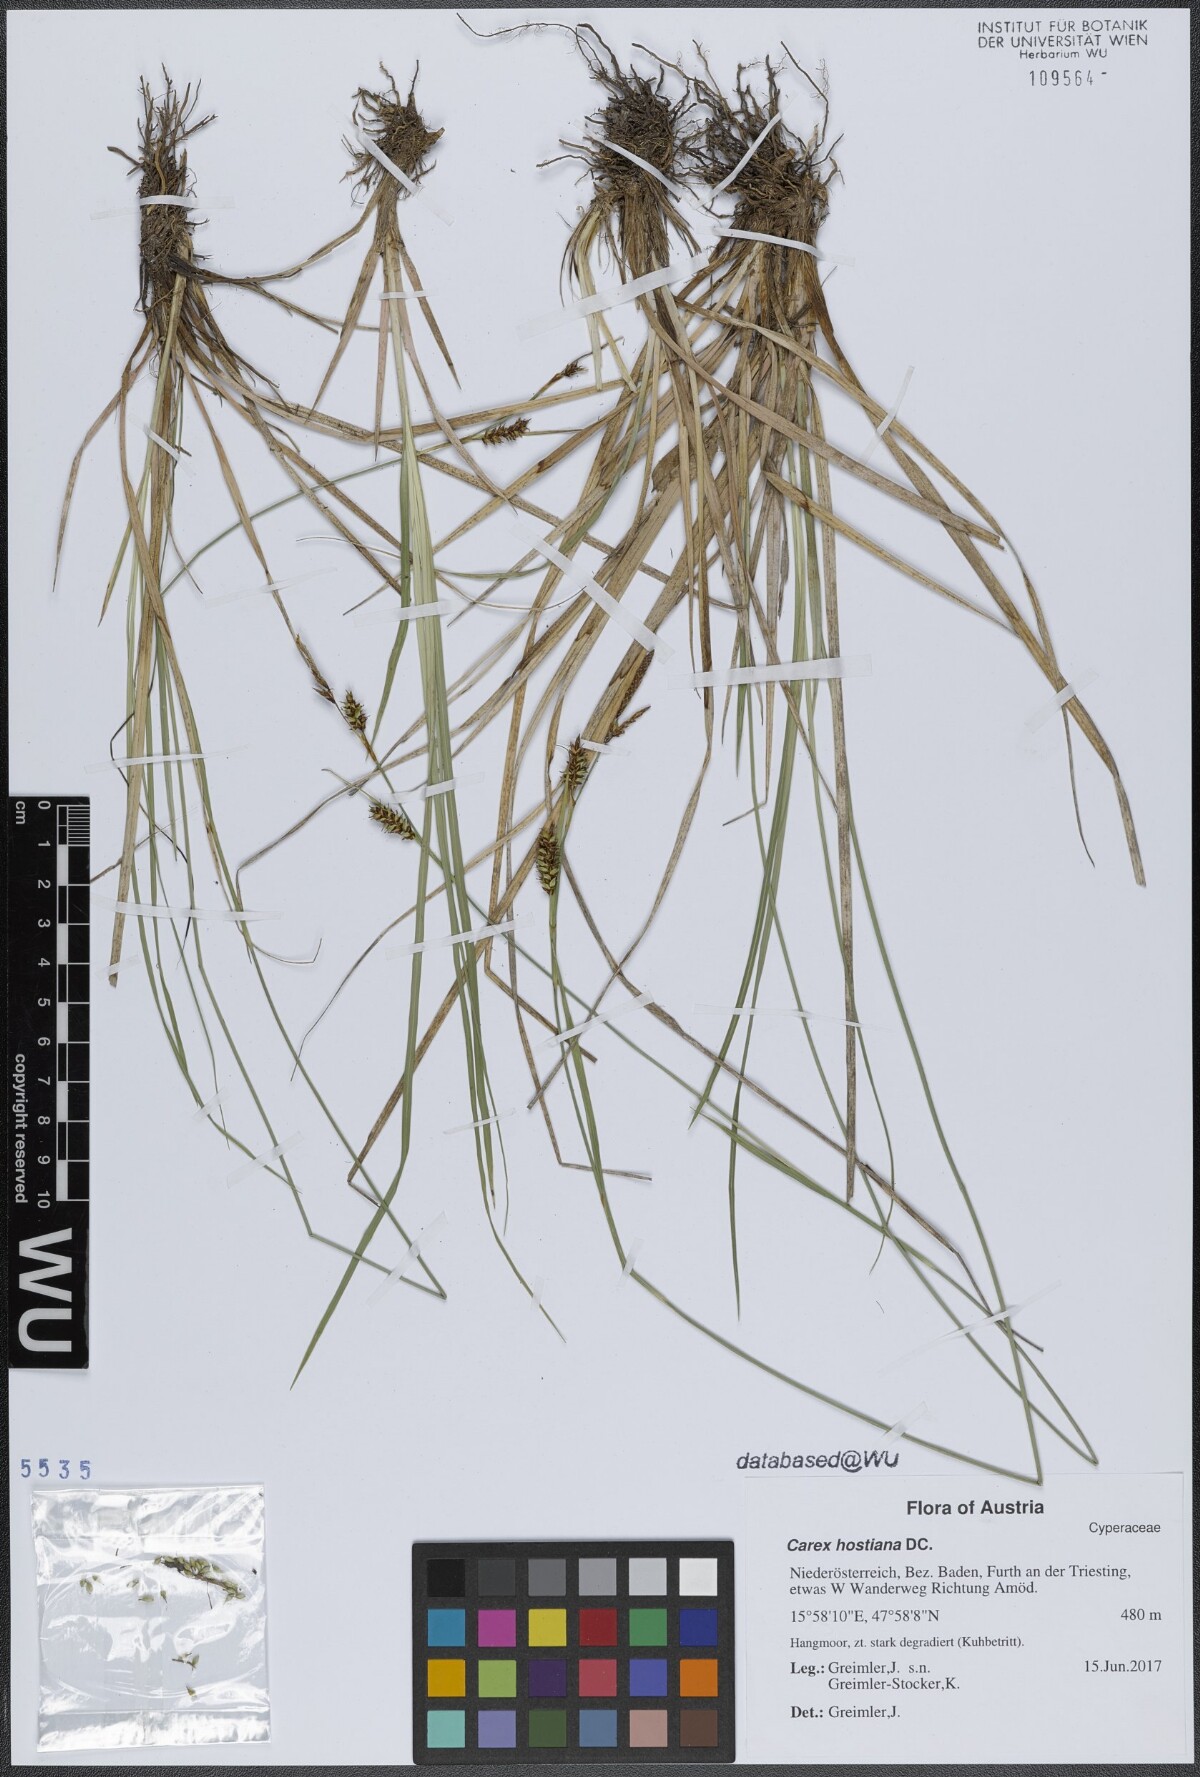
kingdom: Plantae
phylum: Tracheophyta
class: Liliopsida
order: Poales
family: Cyperaceae
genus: Carex
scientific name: Carex hostiana
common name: Tawny sedge
